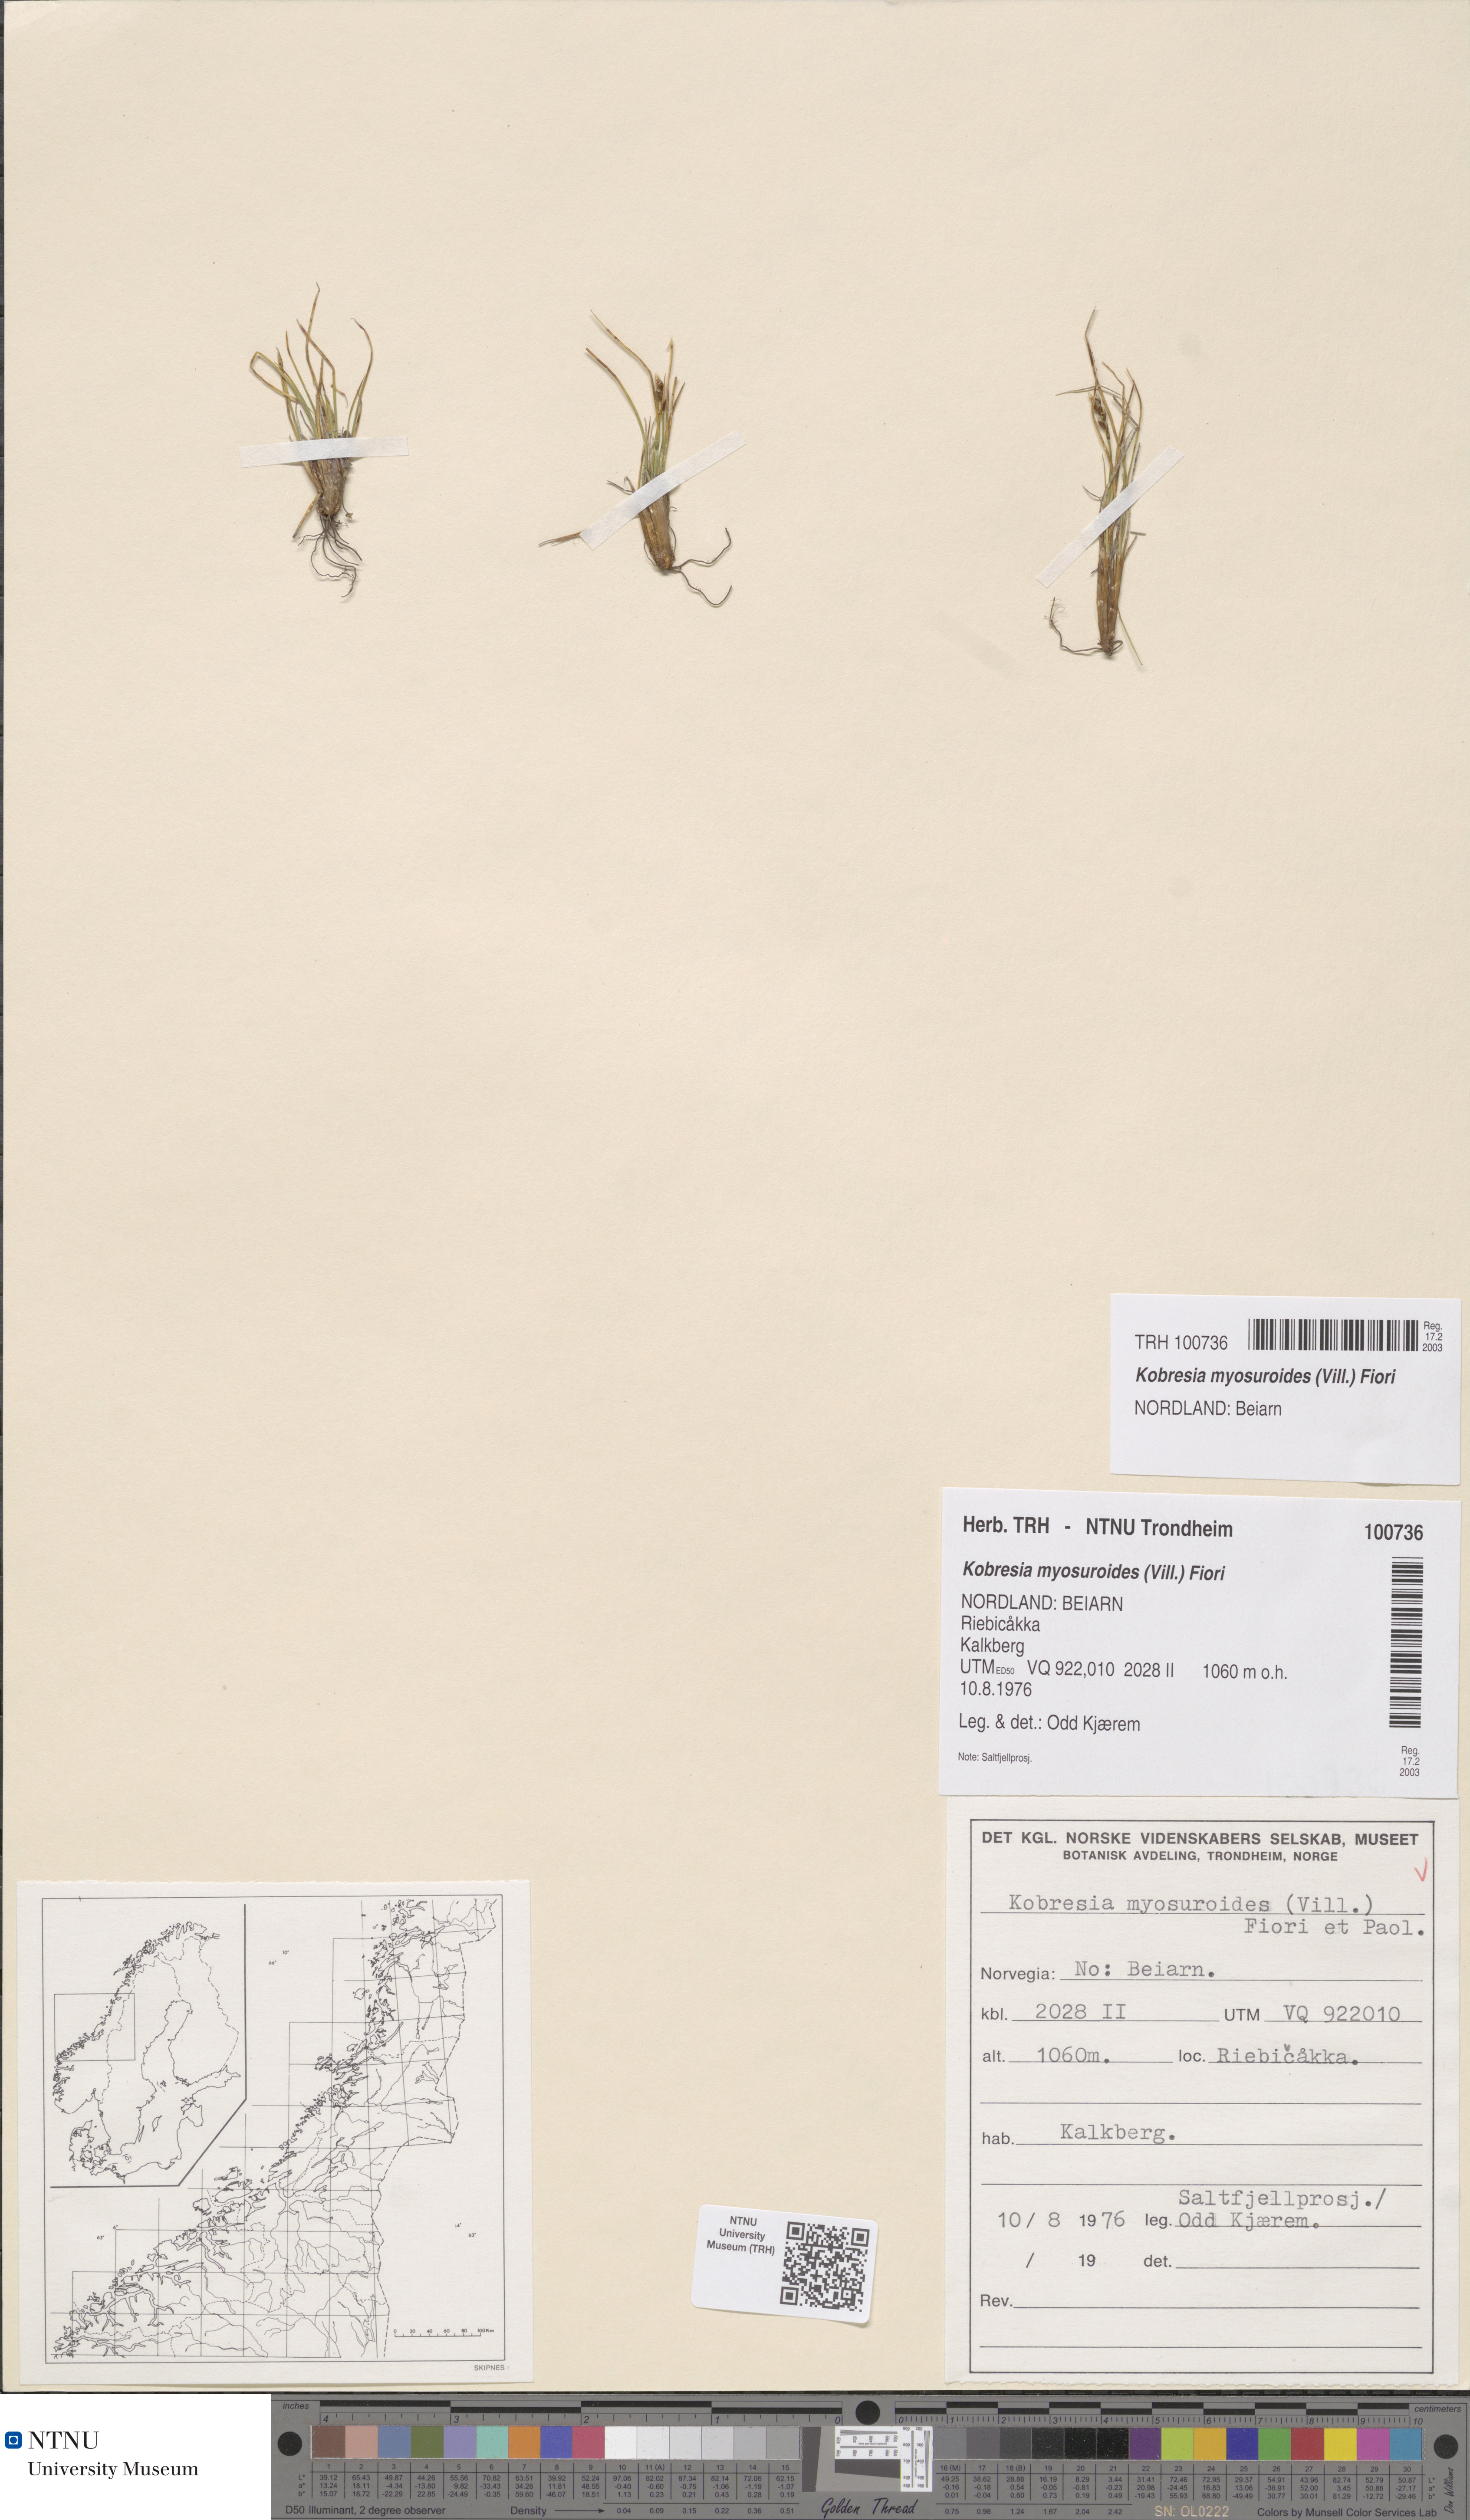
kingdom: Plantae
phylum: Tracheophyta
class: Liliopsida
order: Poales
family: Cyperaceae
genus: Carex
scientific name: Carex myosuroides
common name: Bellard's bog sedge
